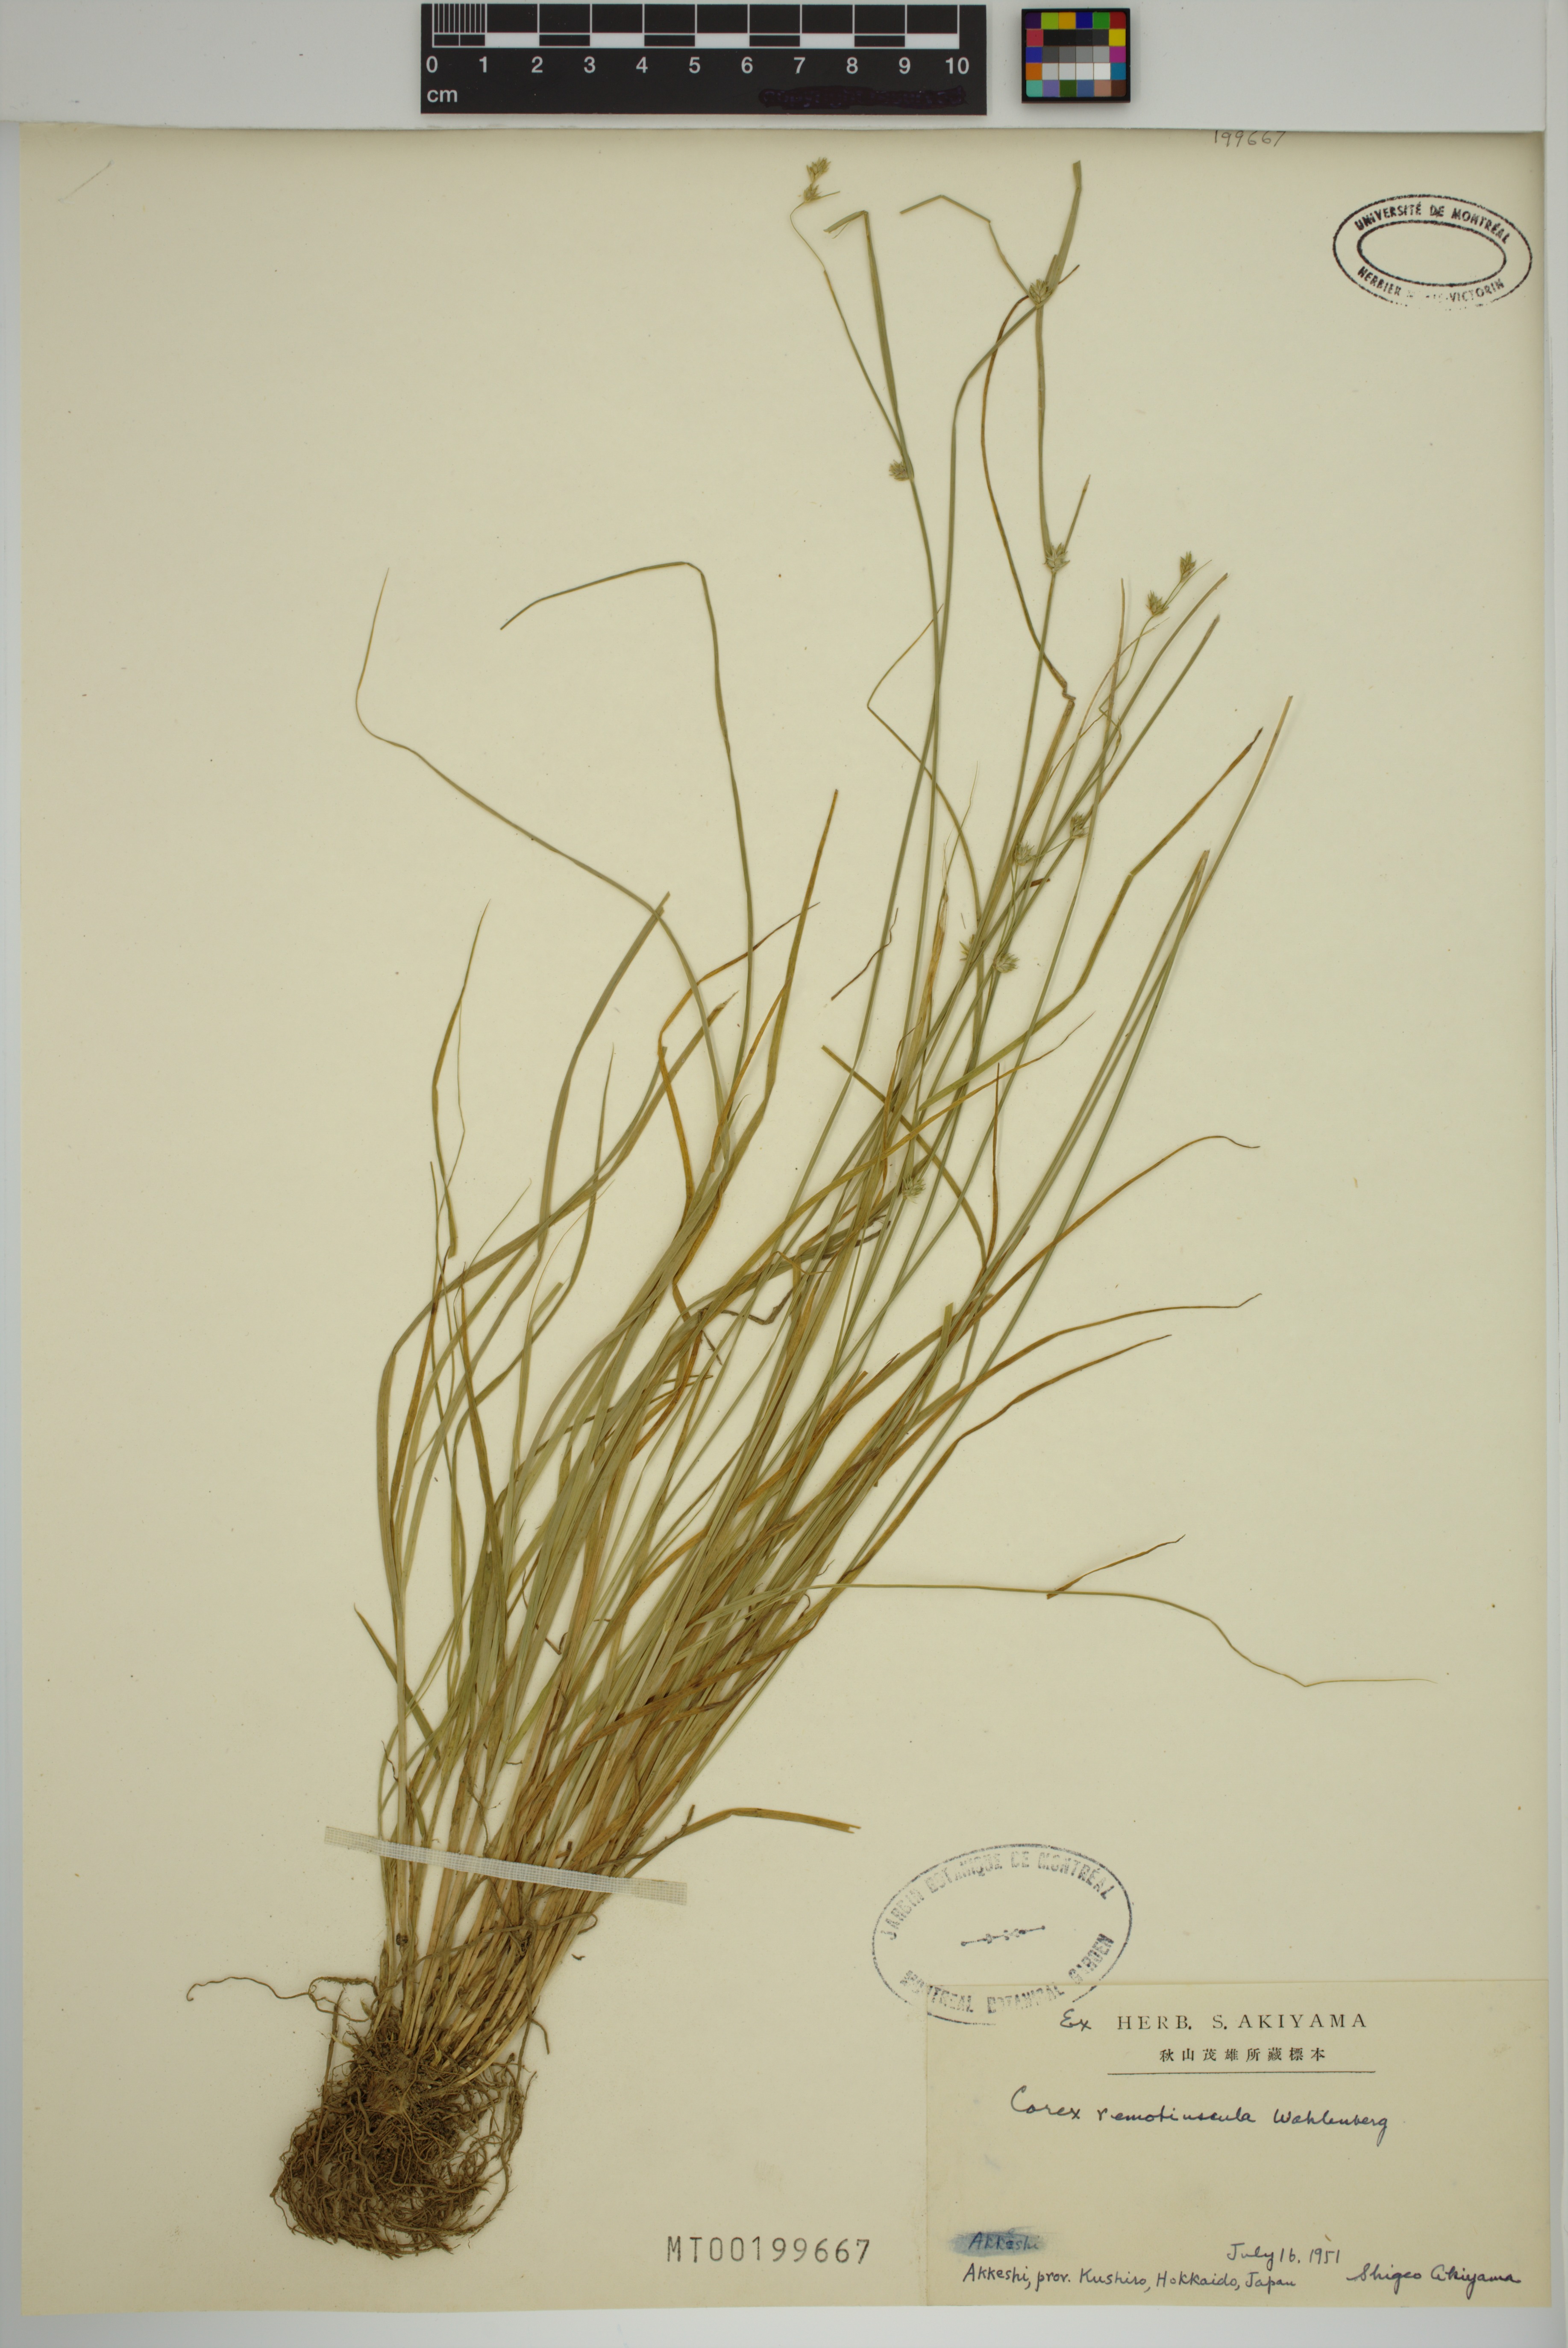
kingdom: Plantae
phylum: Tracheophyta
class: Liliopsida
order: Poales
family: Cyperaceae
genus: Carex
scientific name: Carex remotiuscula
